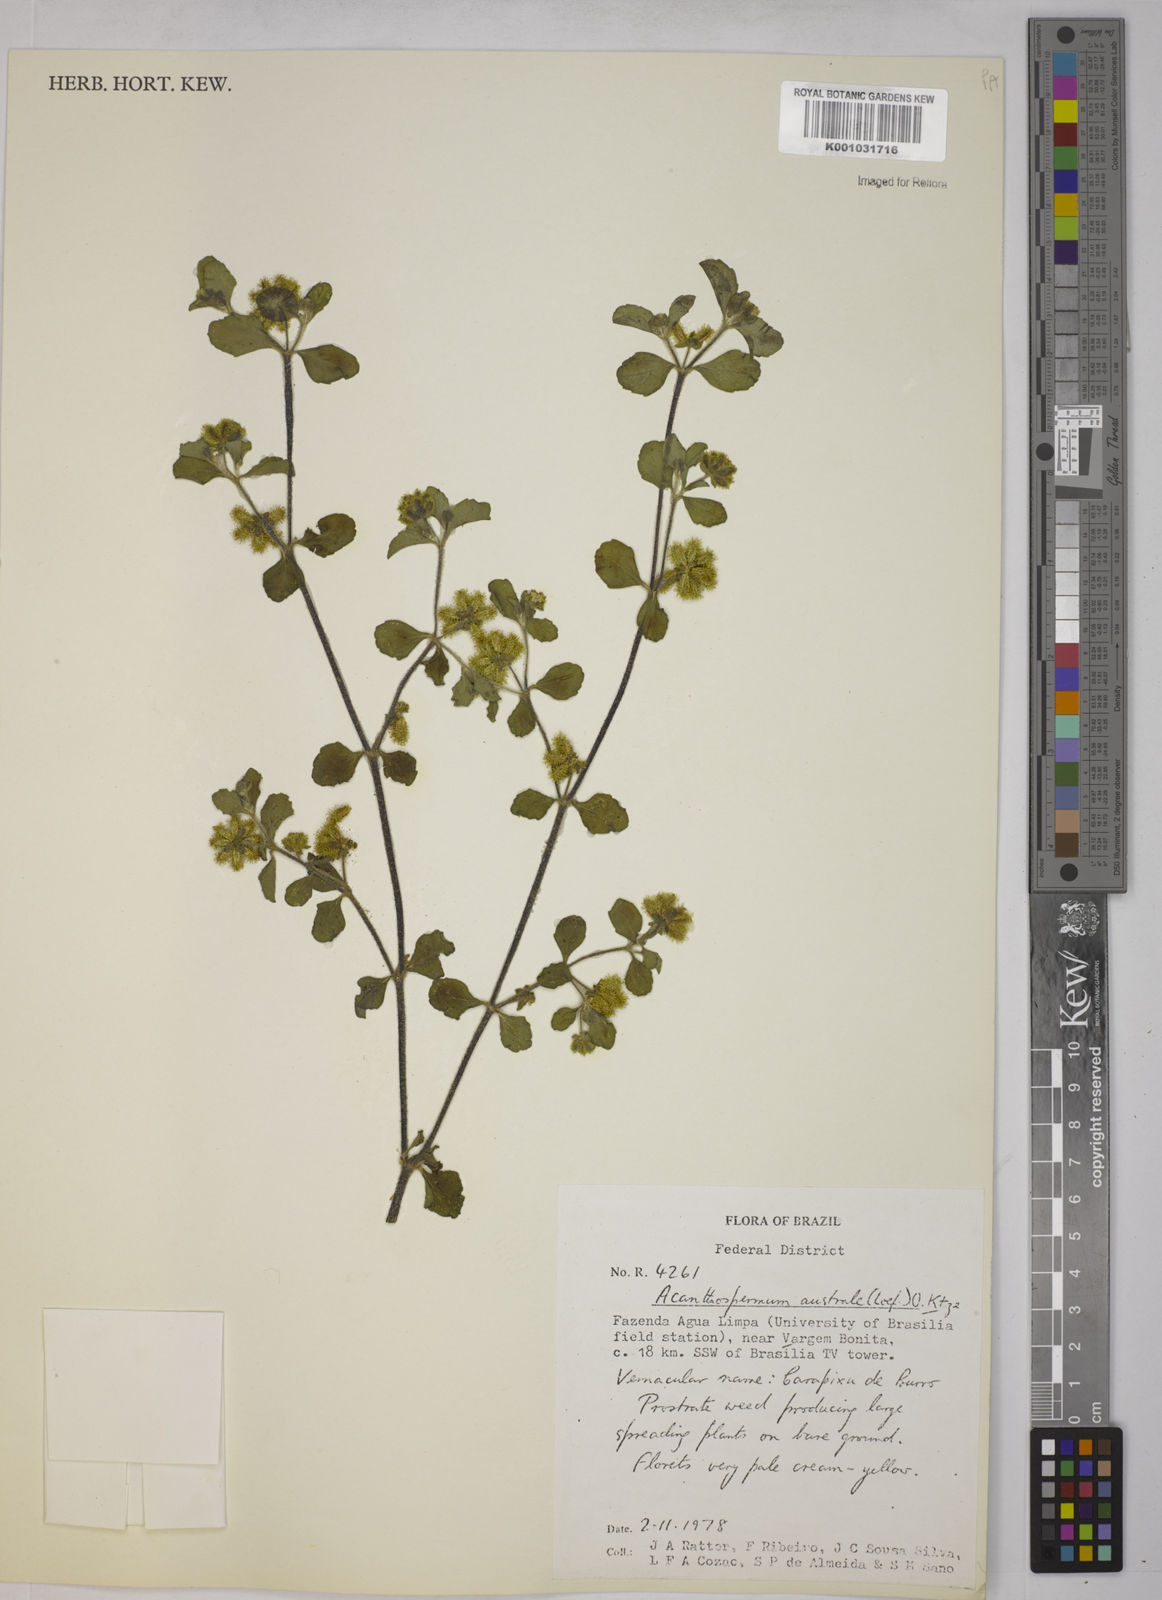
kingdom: Plantae
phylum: Tracheophyta
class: Magnoliopsida
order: Asterales
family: Asteraceae
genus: Acanthospermum
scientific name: Acanthospermum australe
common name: Paraguayan starbur
